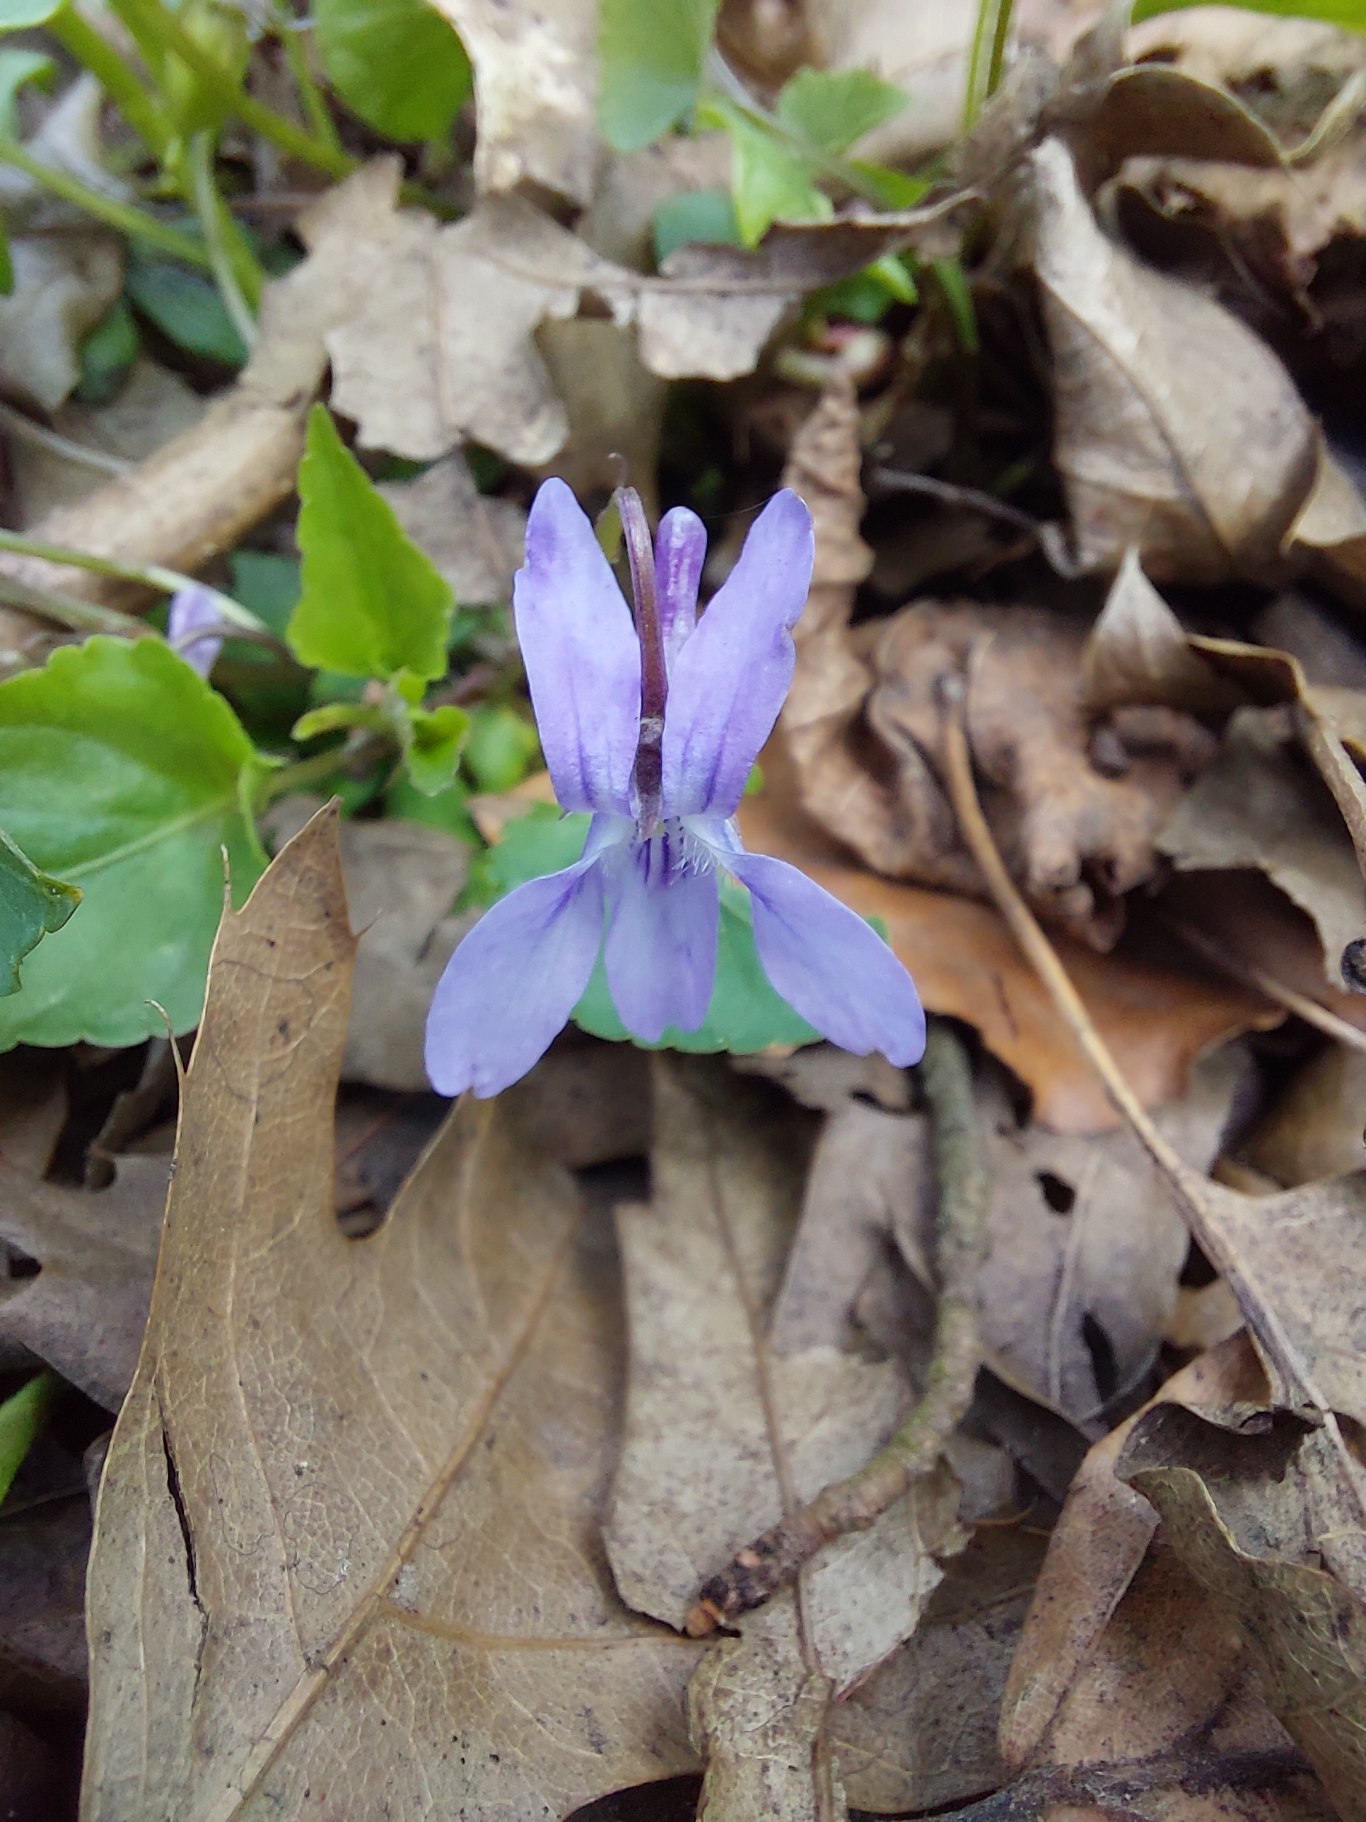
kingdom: Plantae
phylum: Tracheophyta
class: Magnoliopsida
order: Malpighiales
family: Violaceae
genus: Viola
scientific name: Viola reichenbachiana
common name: Skov-viol
